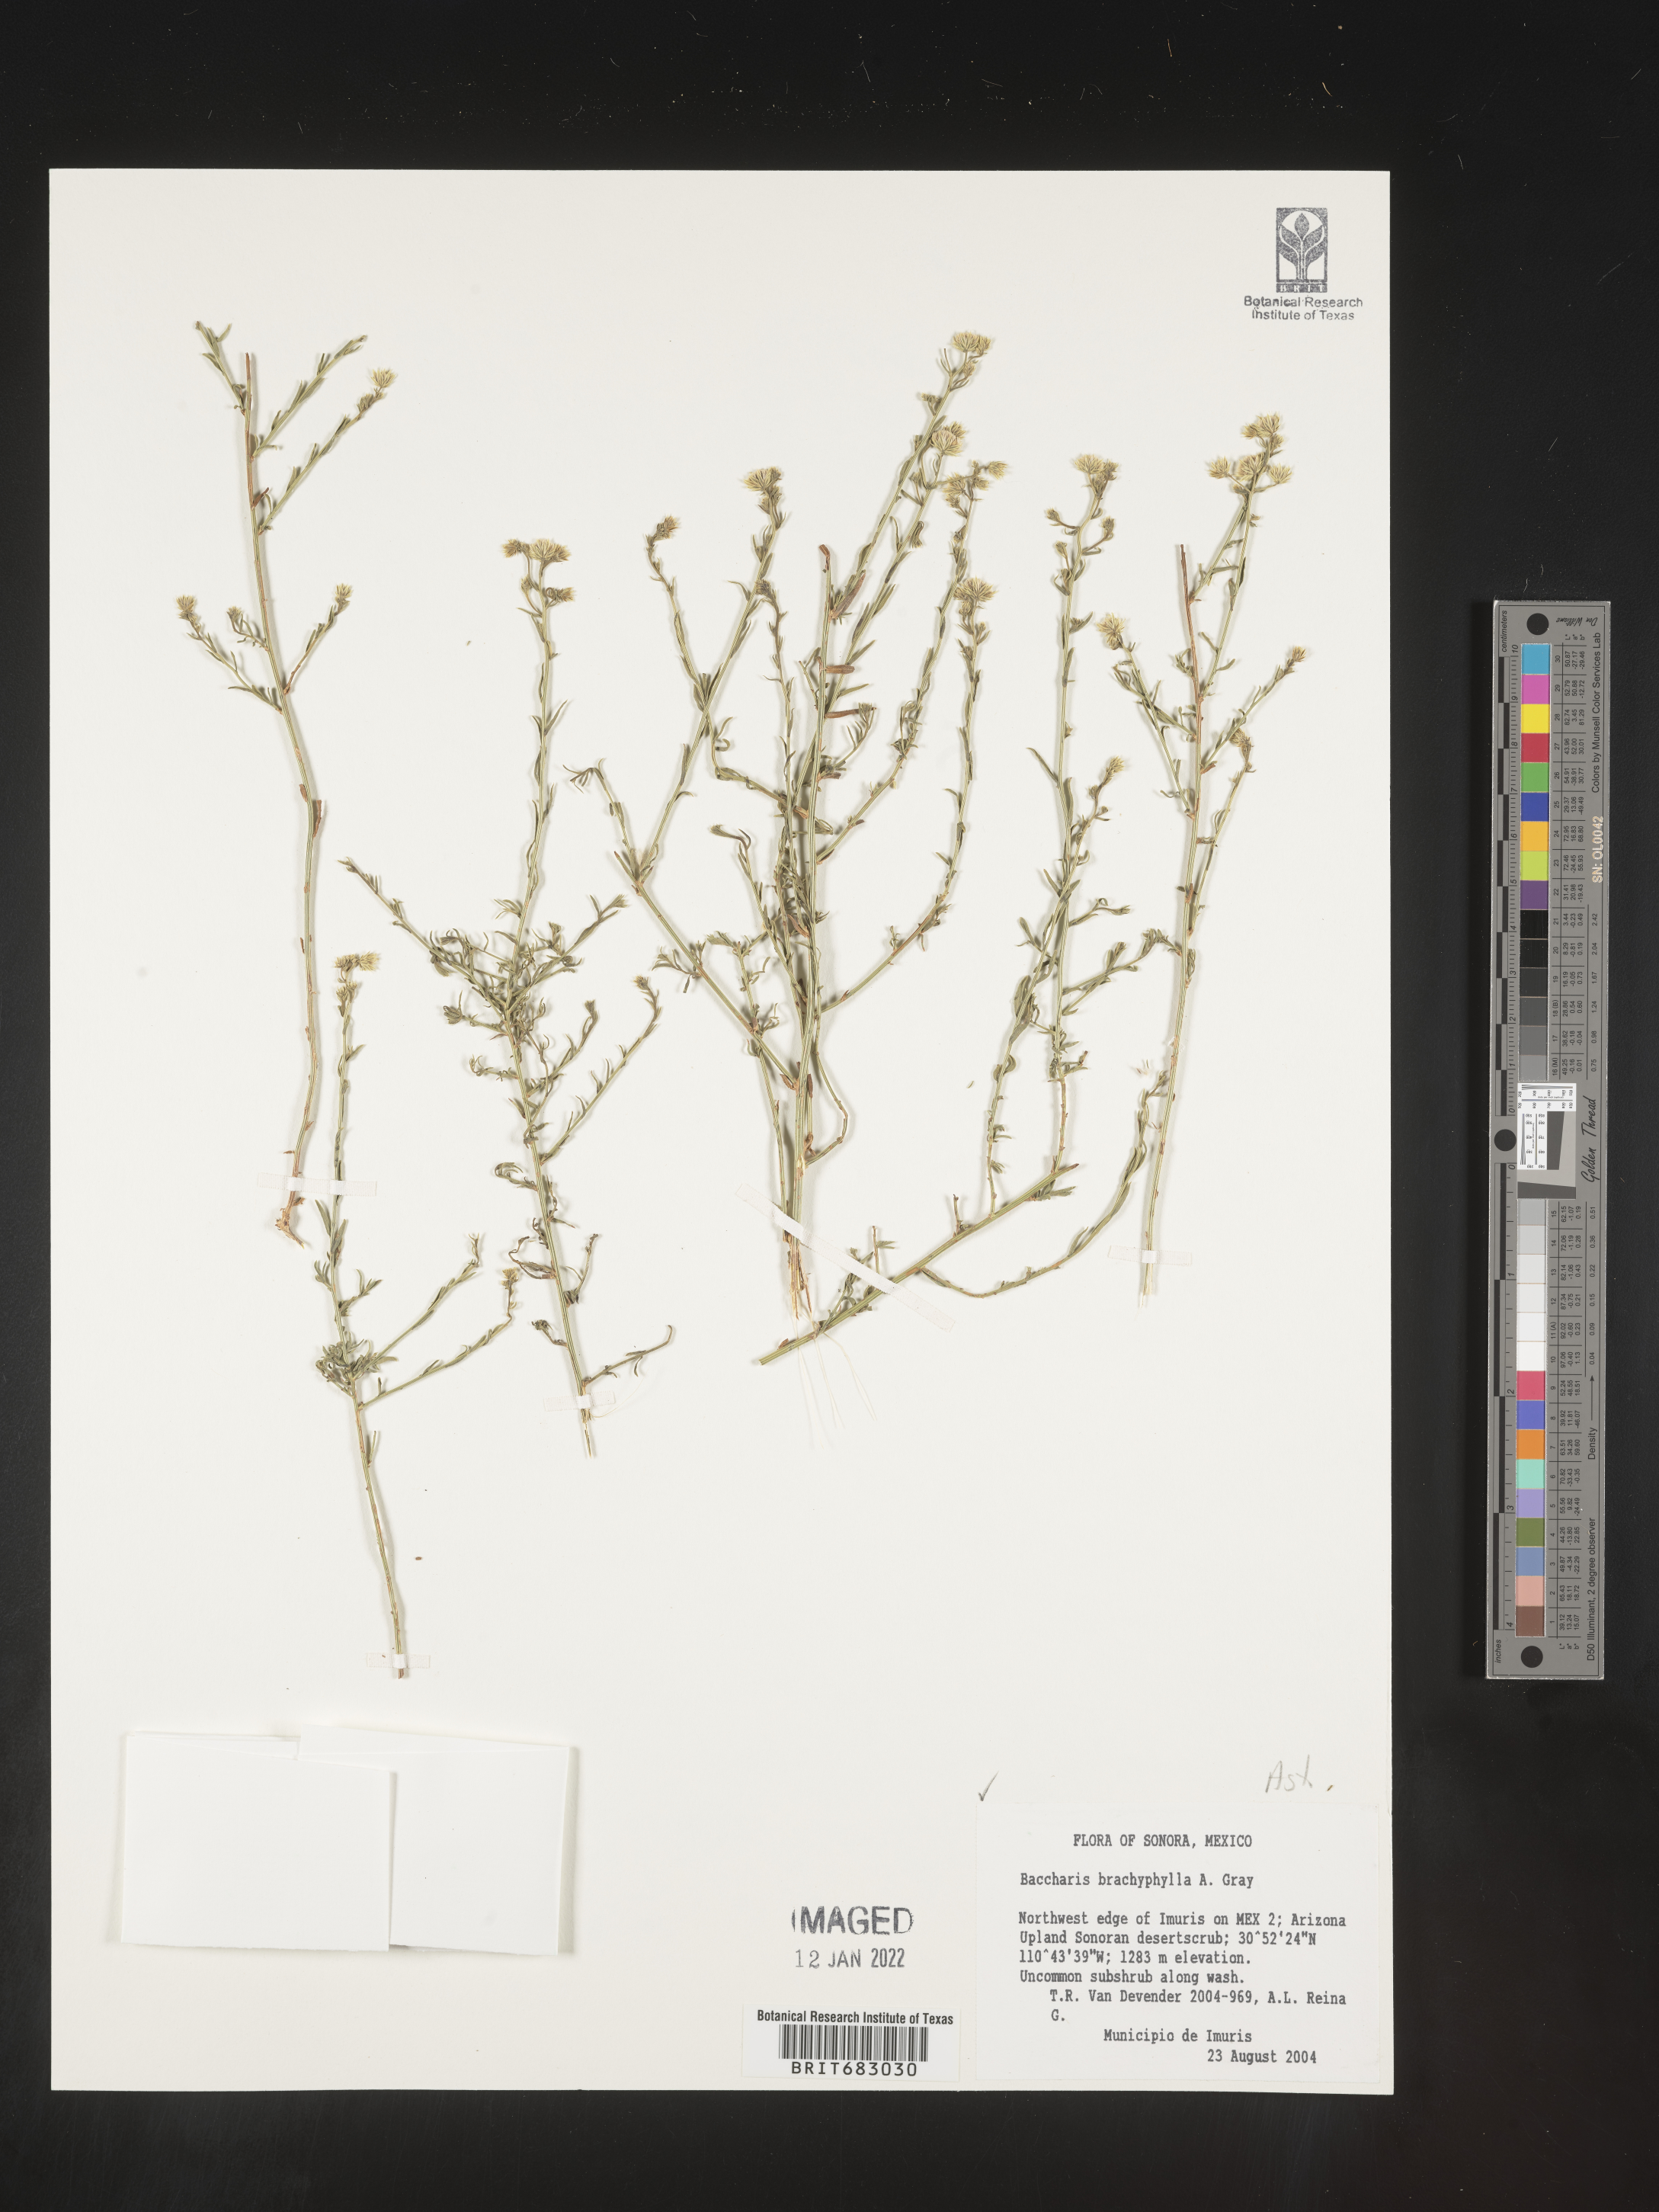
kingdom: Plantae
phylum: Tracheophyta
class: Magnoliopsida
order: Asterales
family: Asteraceae
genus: Baccharis
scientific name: Baccharis brachyphylla
